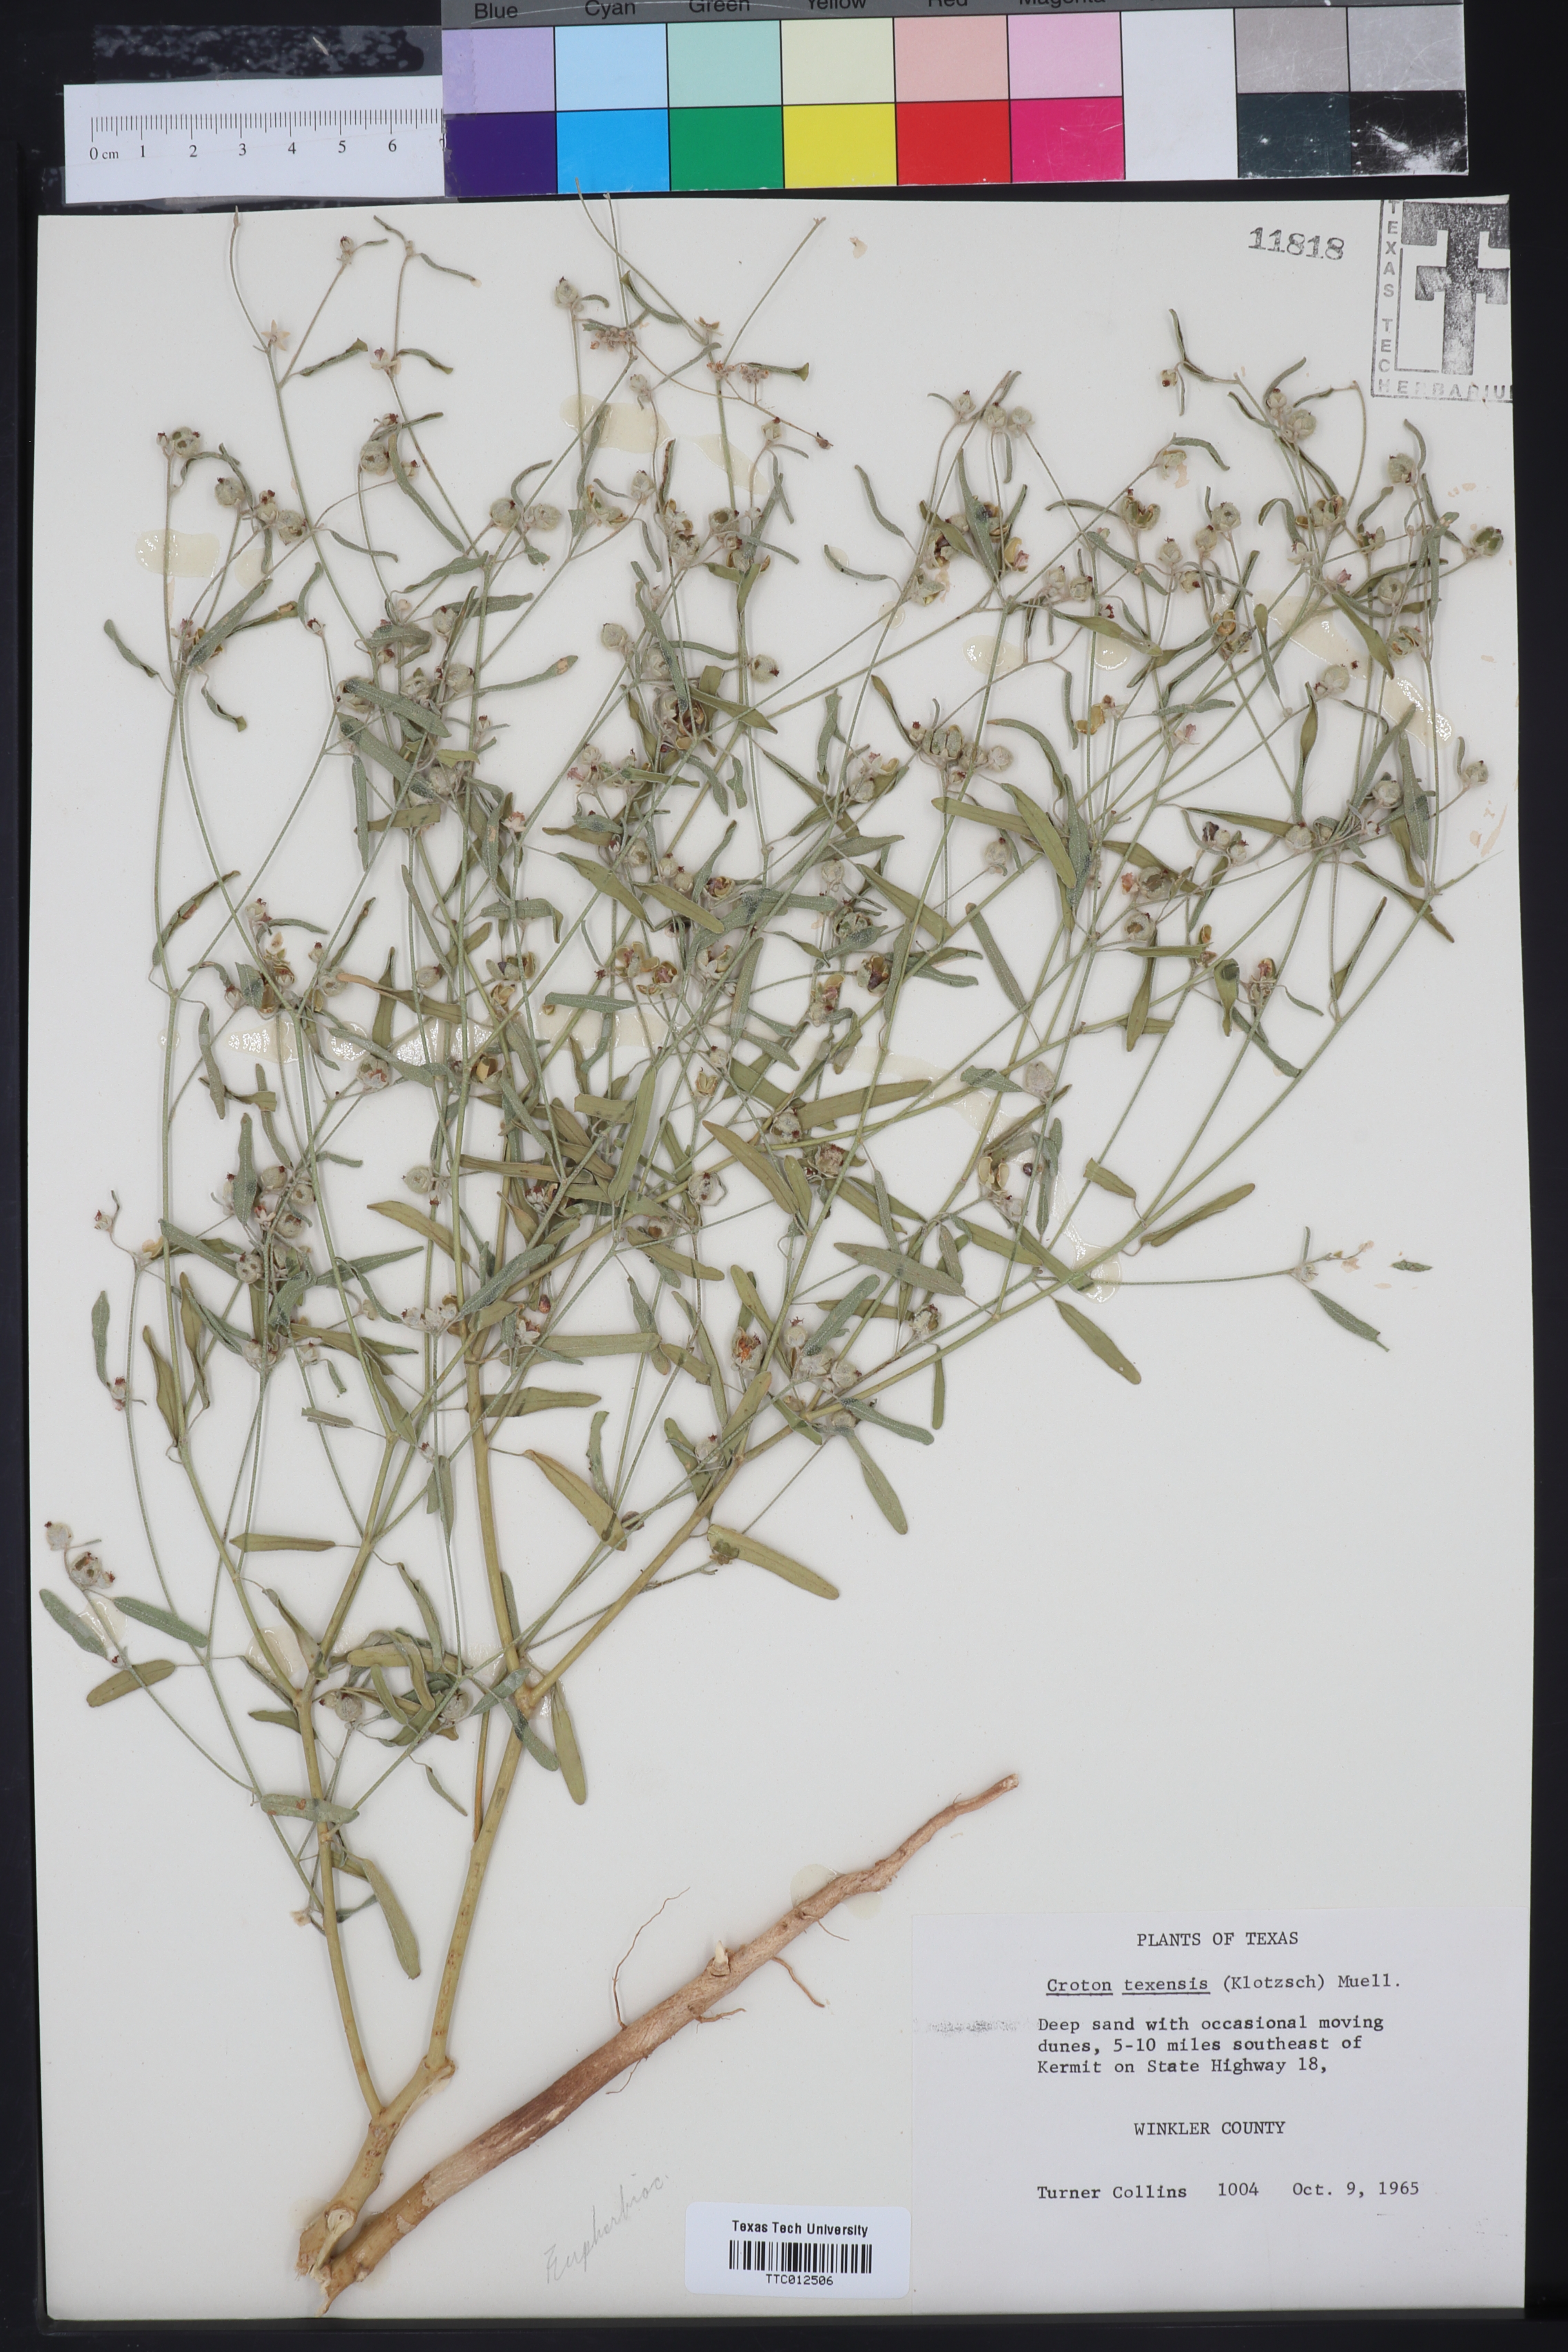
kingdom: Plantae
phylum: Tracheophyta
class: Magnoliopsida
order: Malpighiales
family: Euphorbiaceae
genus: Croton
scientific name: Croton texensis
